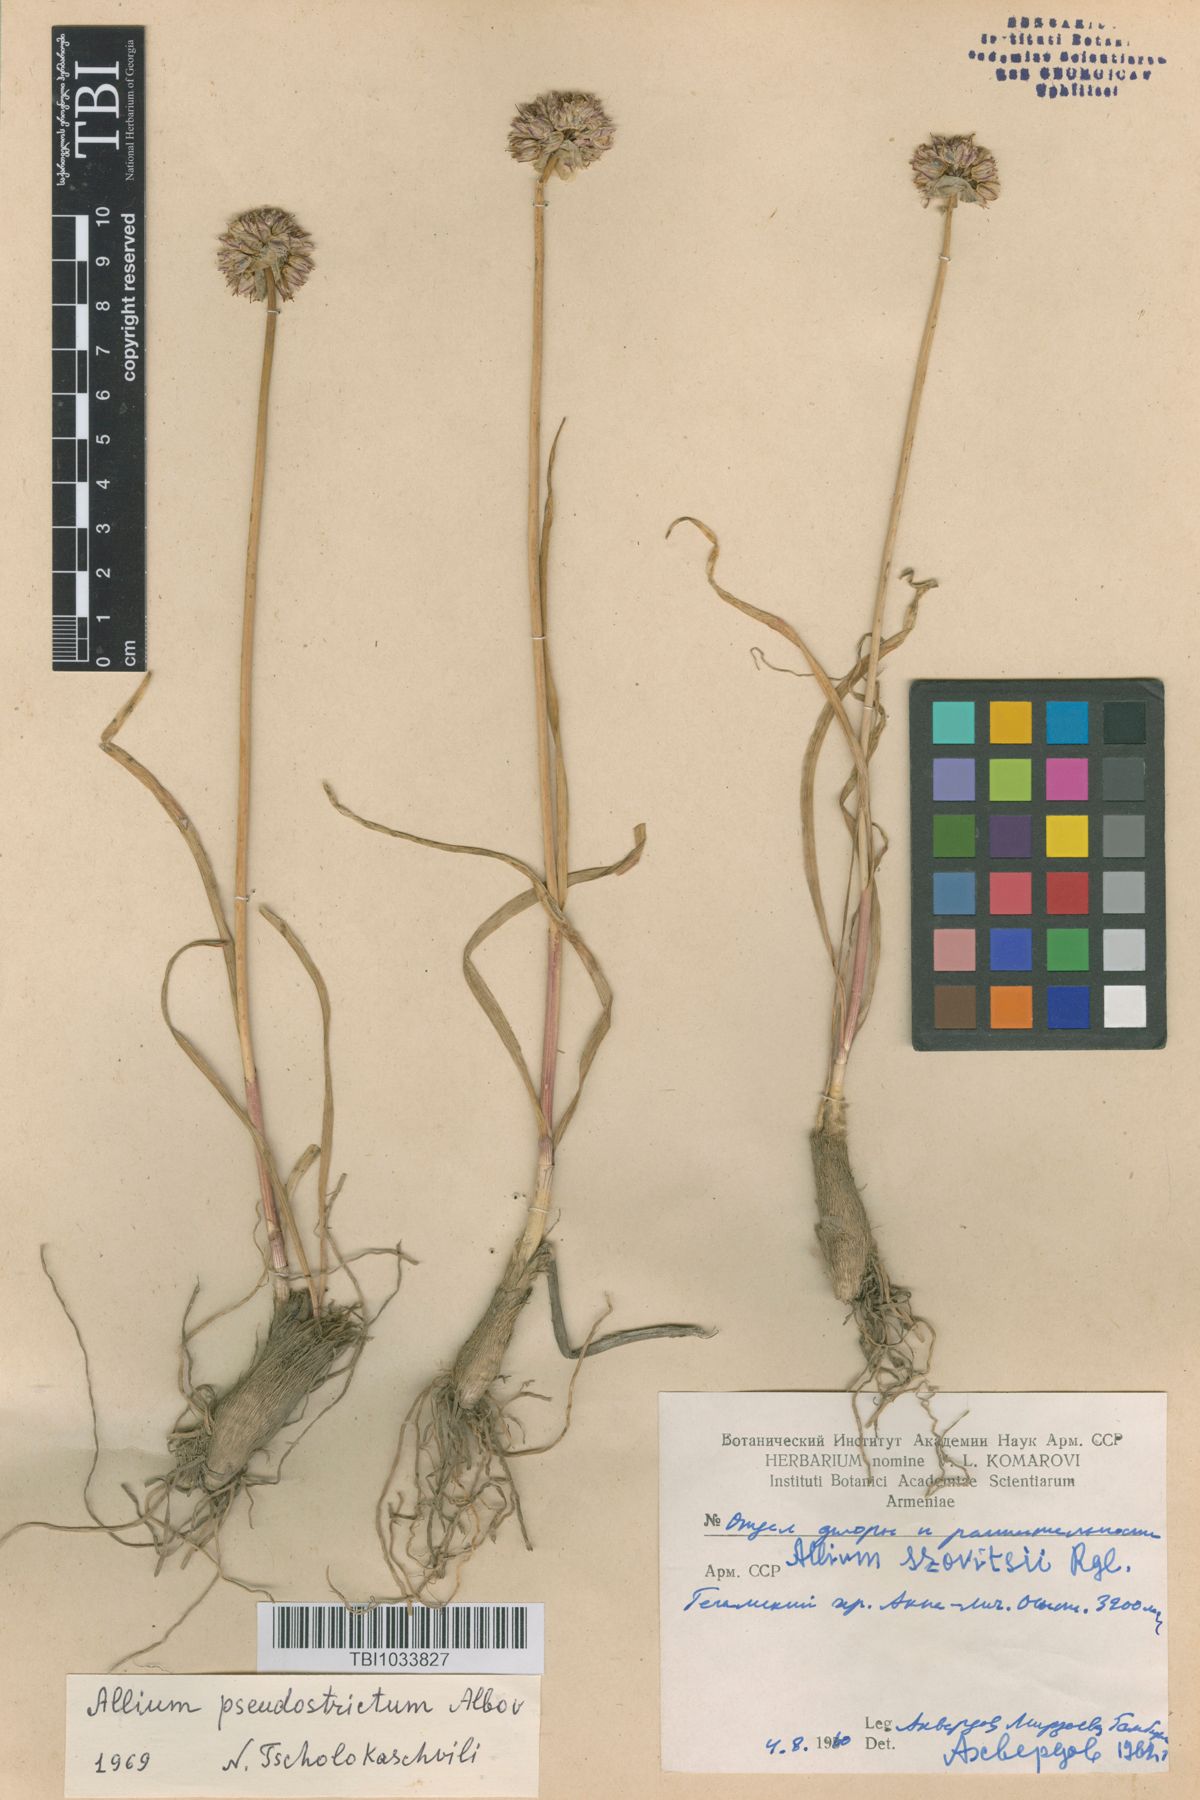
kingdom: Plantae
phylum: Tracheophyta
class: Liliopsida
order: Asparagales
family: Amaryllidaceae
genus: Allium
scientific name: Allium pseudostrictum
